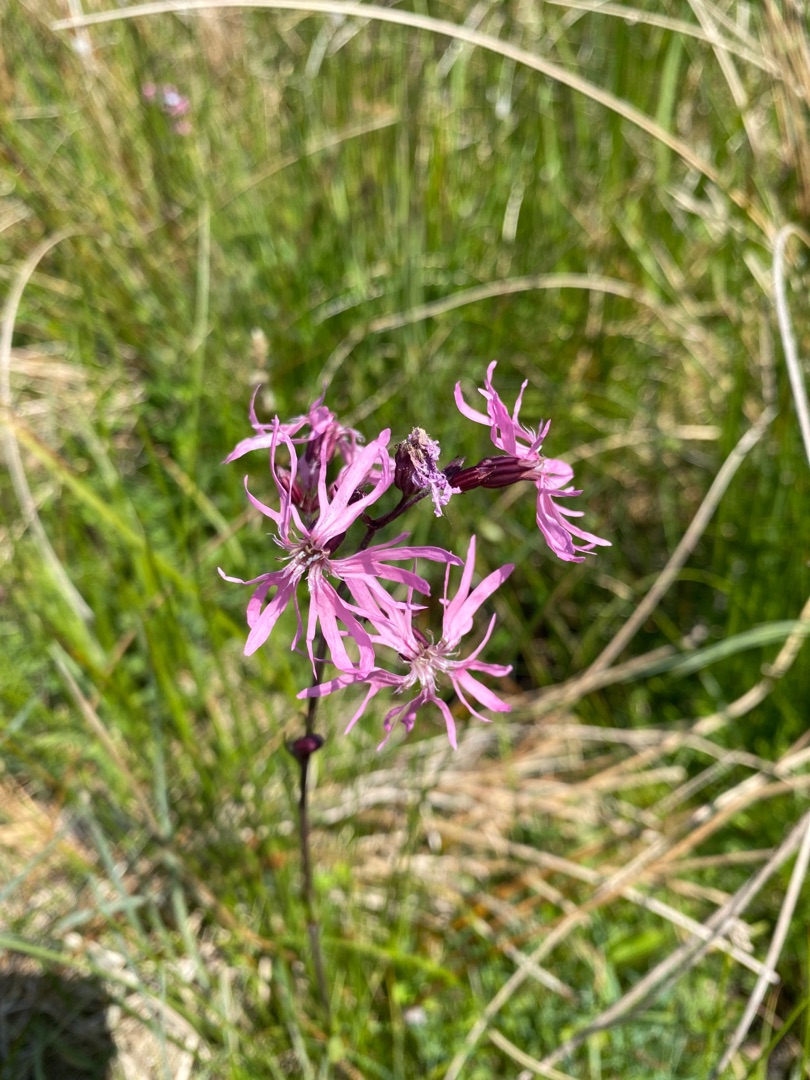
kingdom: Plantae
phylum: Tracheophyta
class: Magnoliopsida
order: Caryophyllales
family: Caryophyllaceae
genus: Silene
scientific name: Silene flos-cuculi
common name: Trævlekrone
